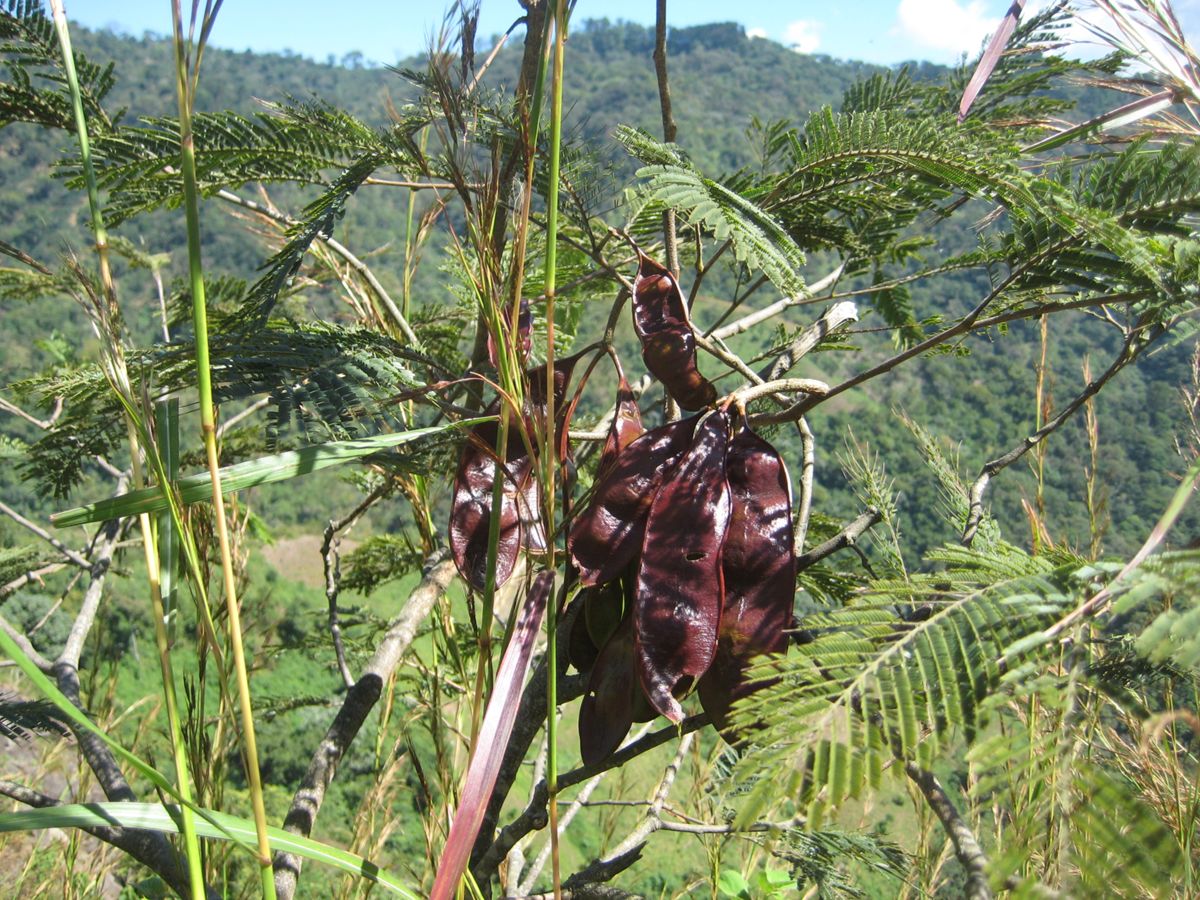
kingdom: Plantae
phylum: Tracheophyta
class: Magnoliopsida
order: Fabales
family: Fabaceae
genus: Lysiloma
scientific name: Lysiloma auritum
